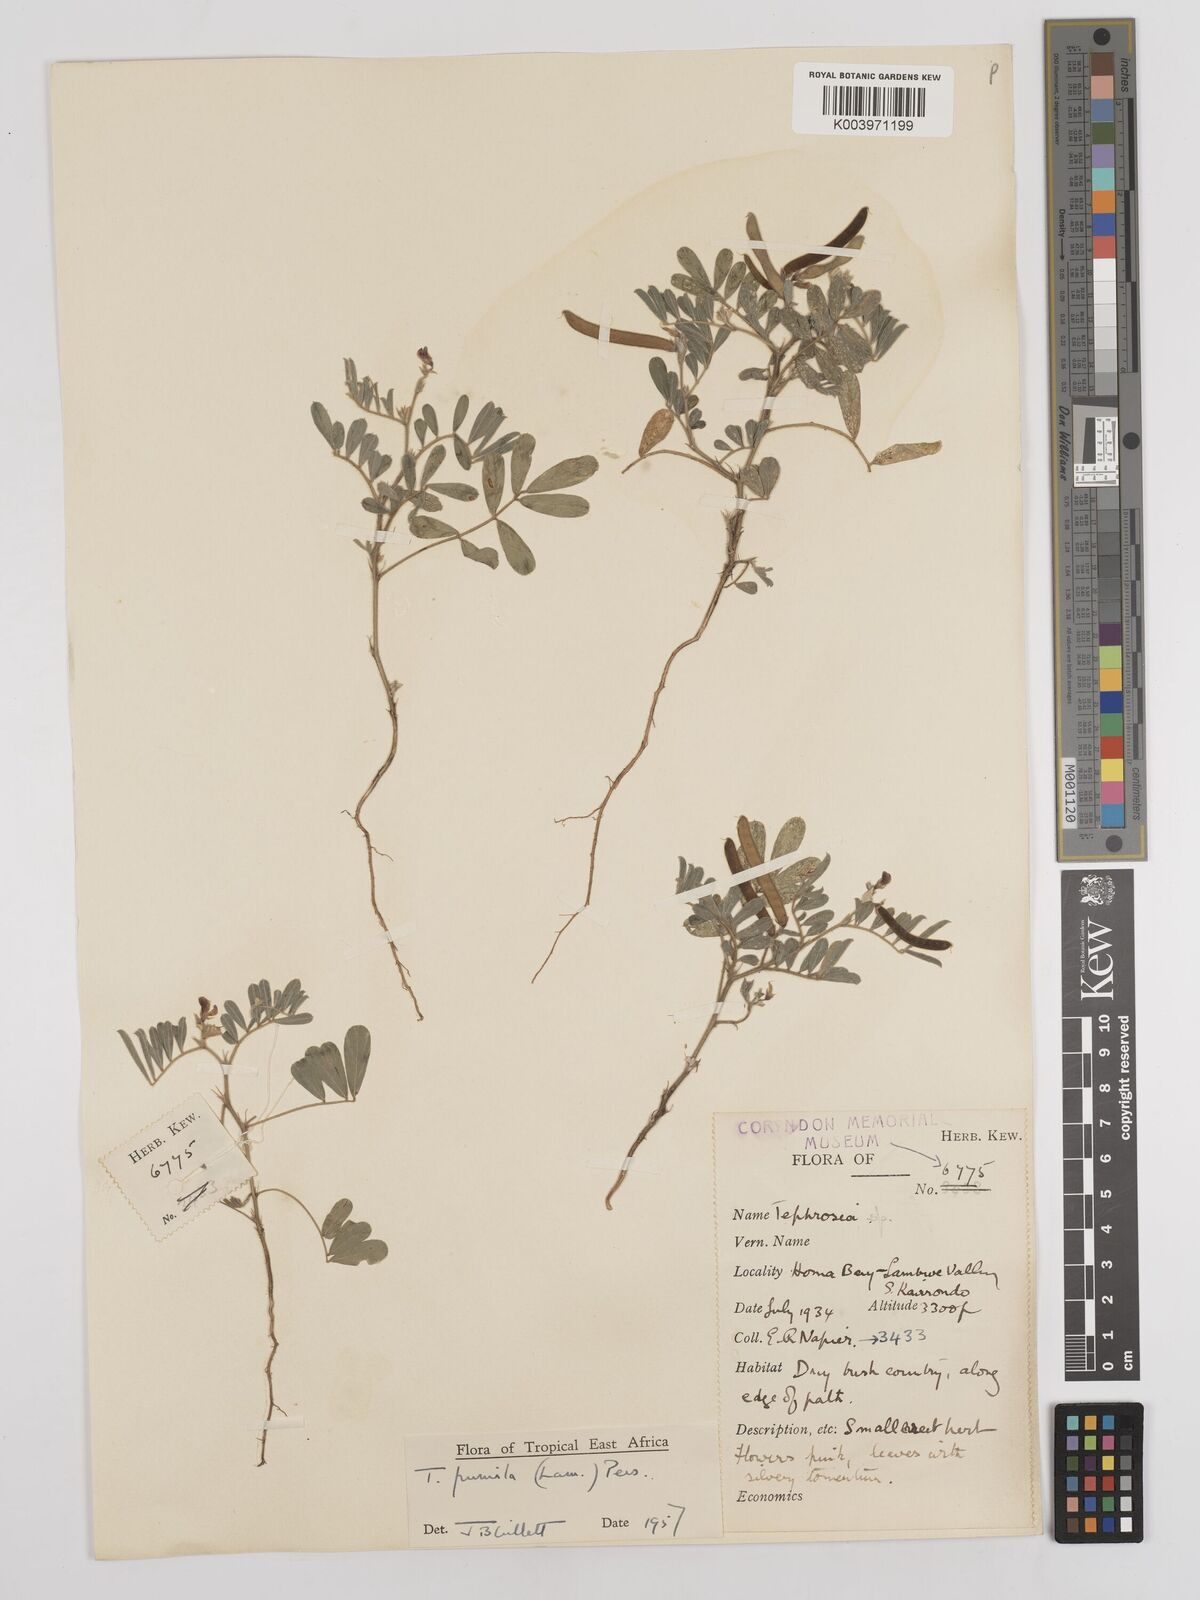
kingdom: Plantae
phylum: Tracheophyta
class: Magnoliopsida
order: Fabales
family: Fabaceae
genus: Tephrosia
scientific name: Tephrosia pumila
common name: Indigo sauvage
